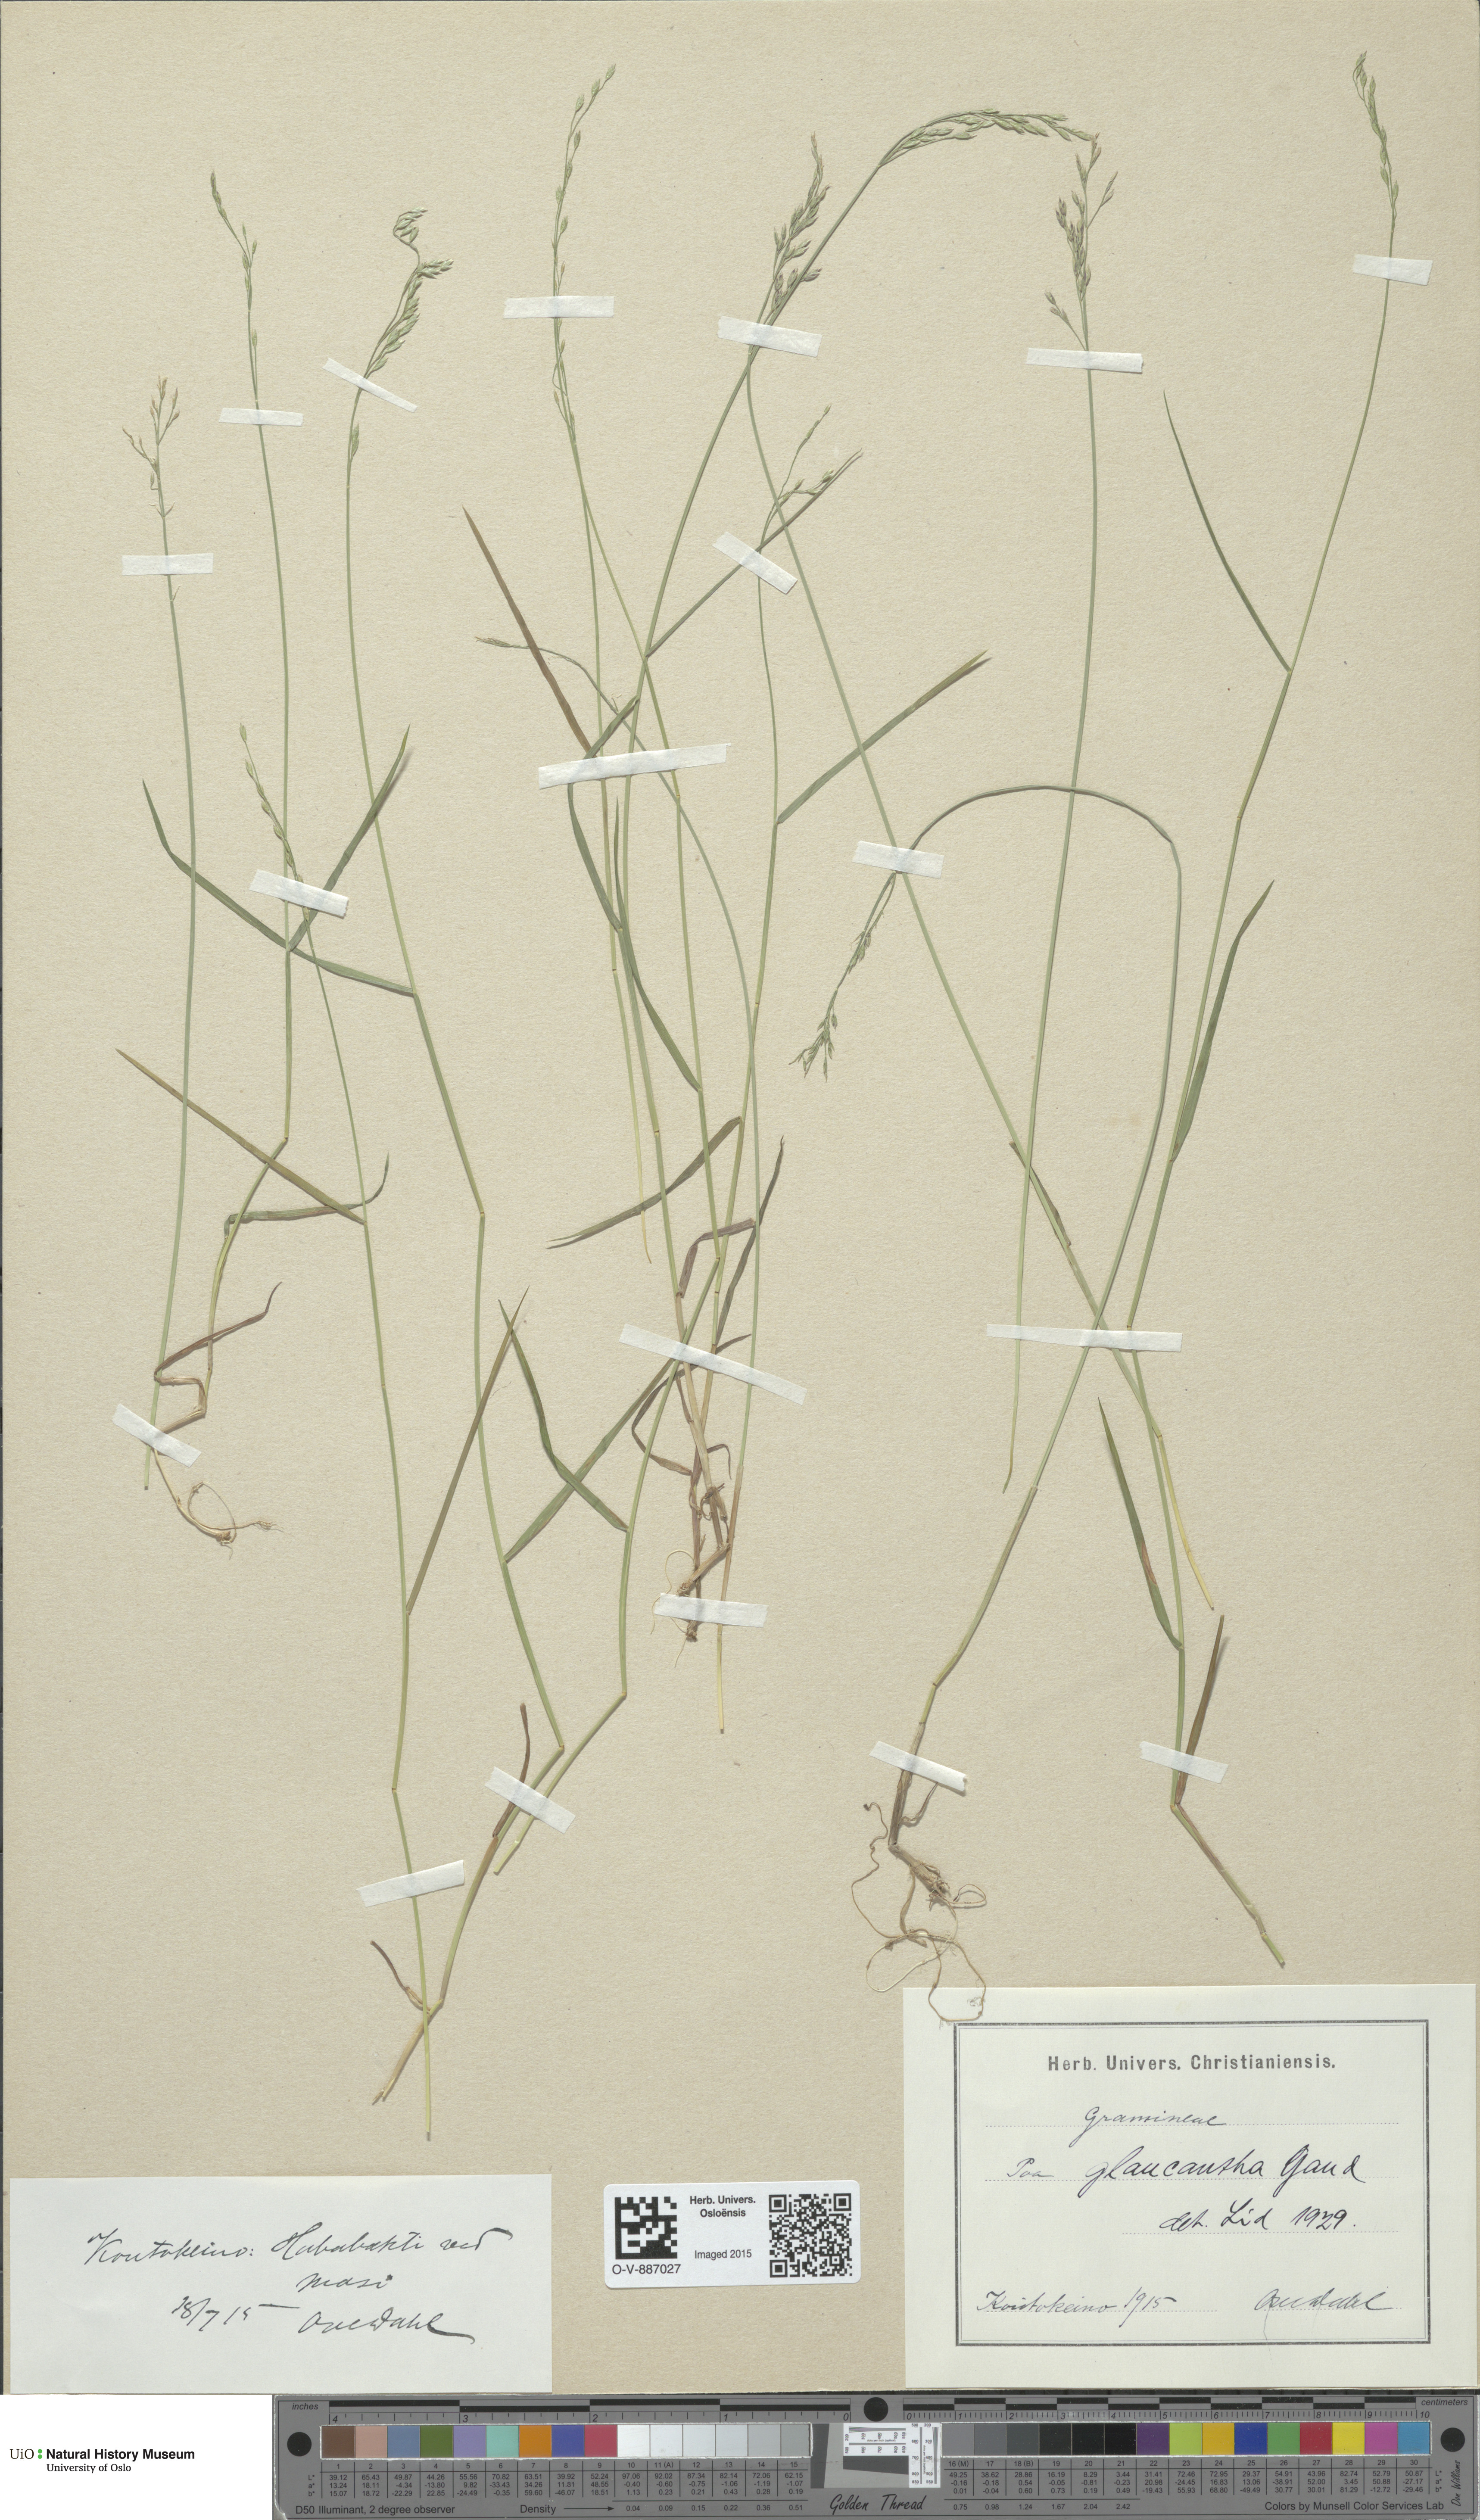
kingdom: Plantae
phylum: Tracheophyta
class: Liliopsida
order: Poales
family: Poaceae
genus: Poa
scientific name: Poa nemoralis
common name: Wood bluegrass
